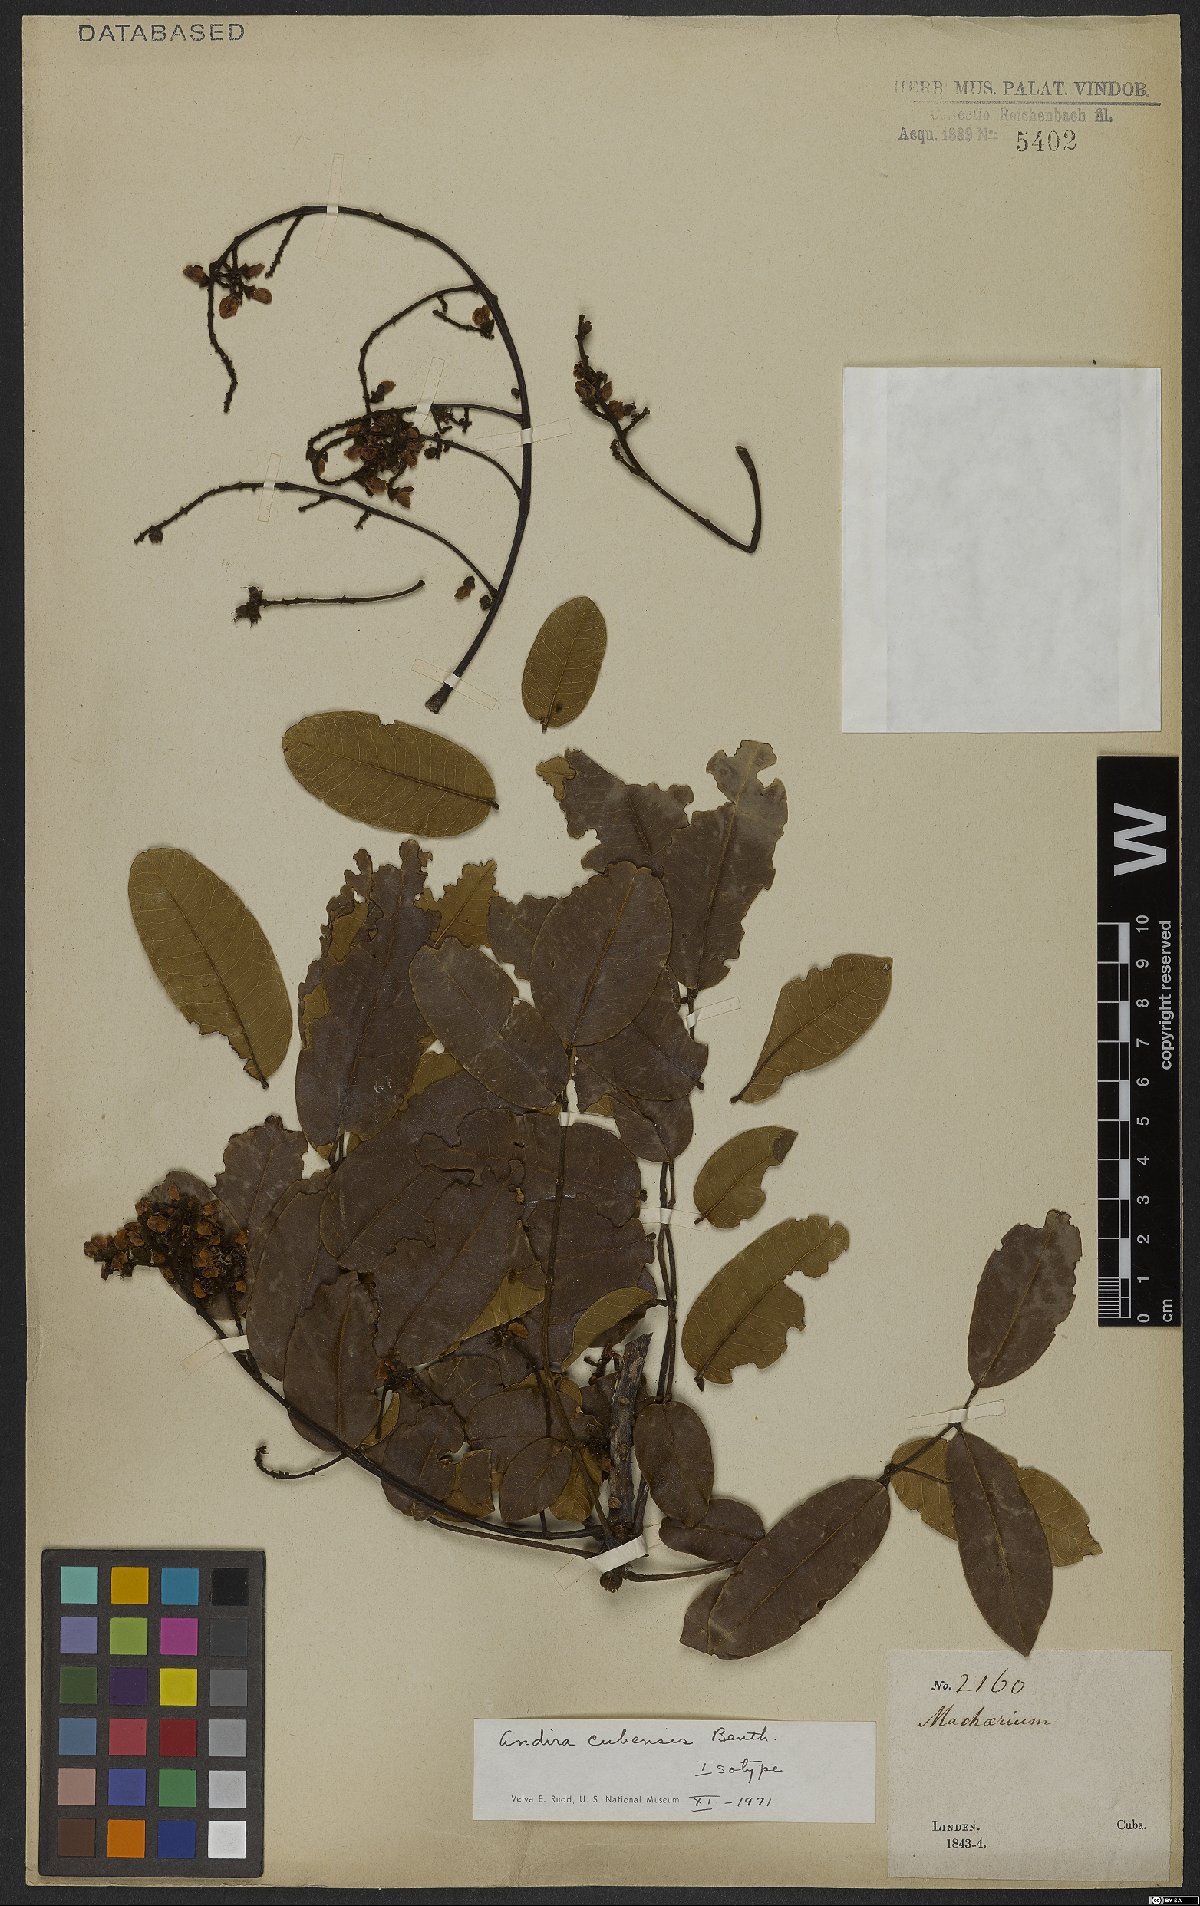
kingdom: Plantae
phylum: Tracheophyta
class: Magnoliopsida
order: Fabales
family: Fabaceae
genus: Andira
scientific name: Andira cubensis
